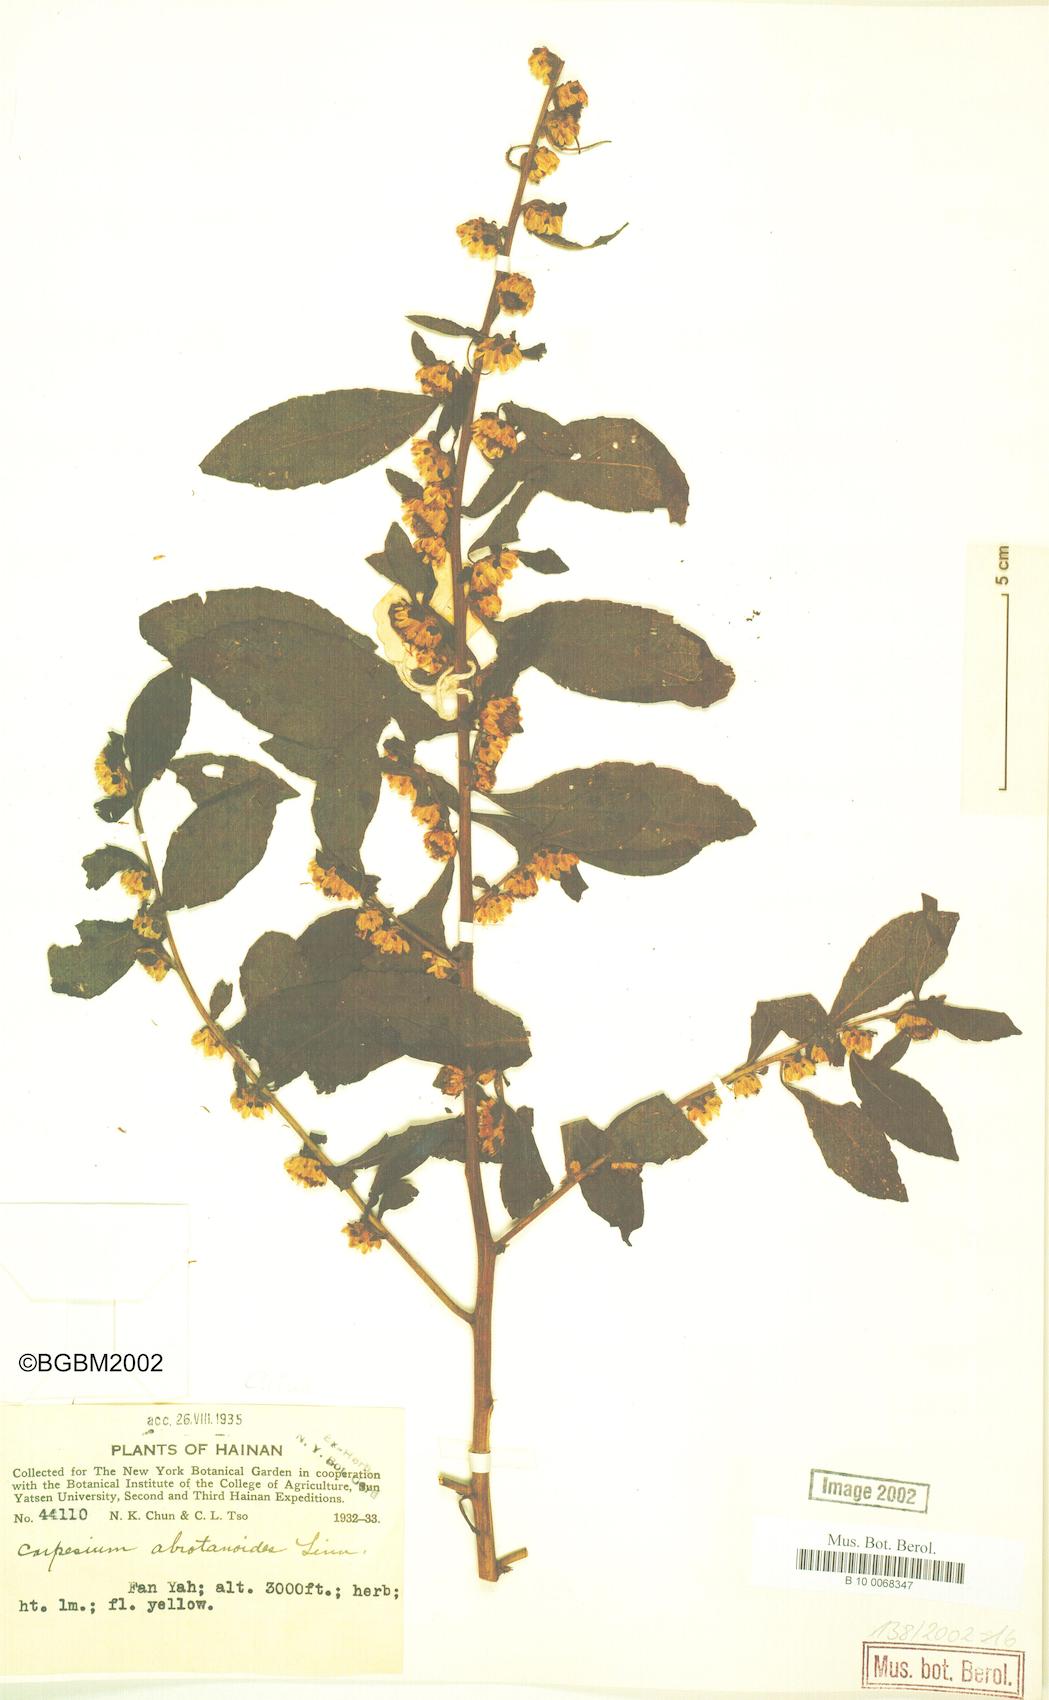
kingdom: Plantae
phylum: Tracheophyta
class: Magnoliopsida
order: Asterales
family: Asteraceae
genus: Carpesium
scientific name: Carpesium abrotanoides
